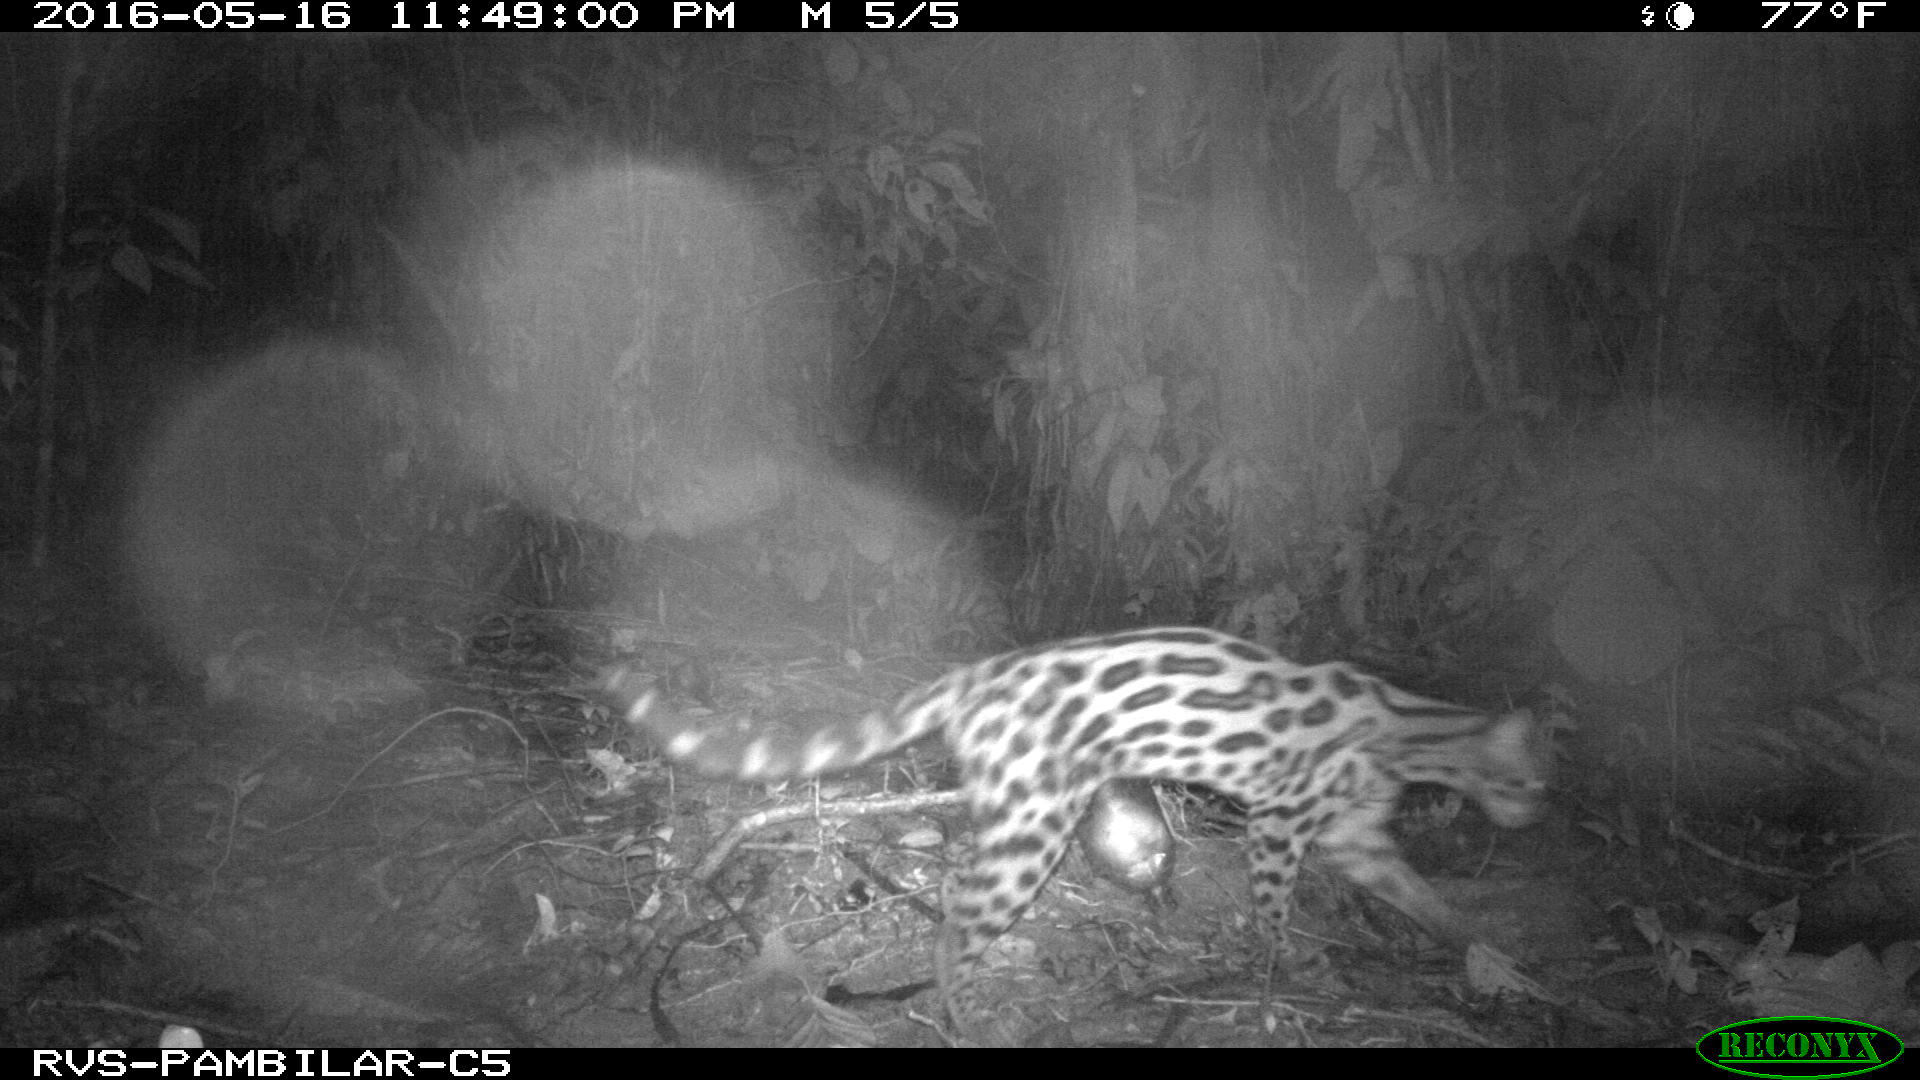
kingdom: Animalia
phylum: Chordata
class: Mammalia
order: Carnivora
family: Felidae
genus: Leopardus
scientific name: Leopardus wiedii
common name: Margay
